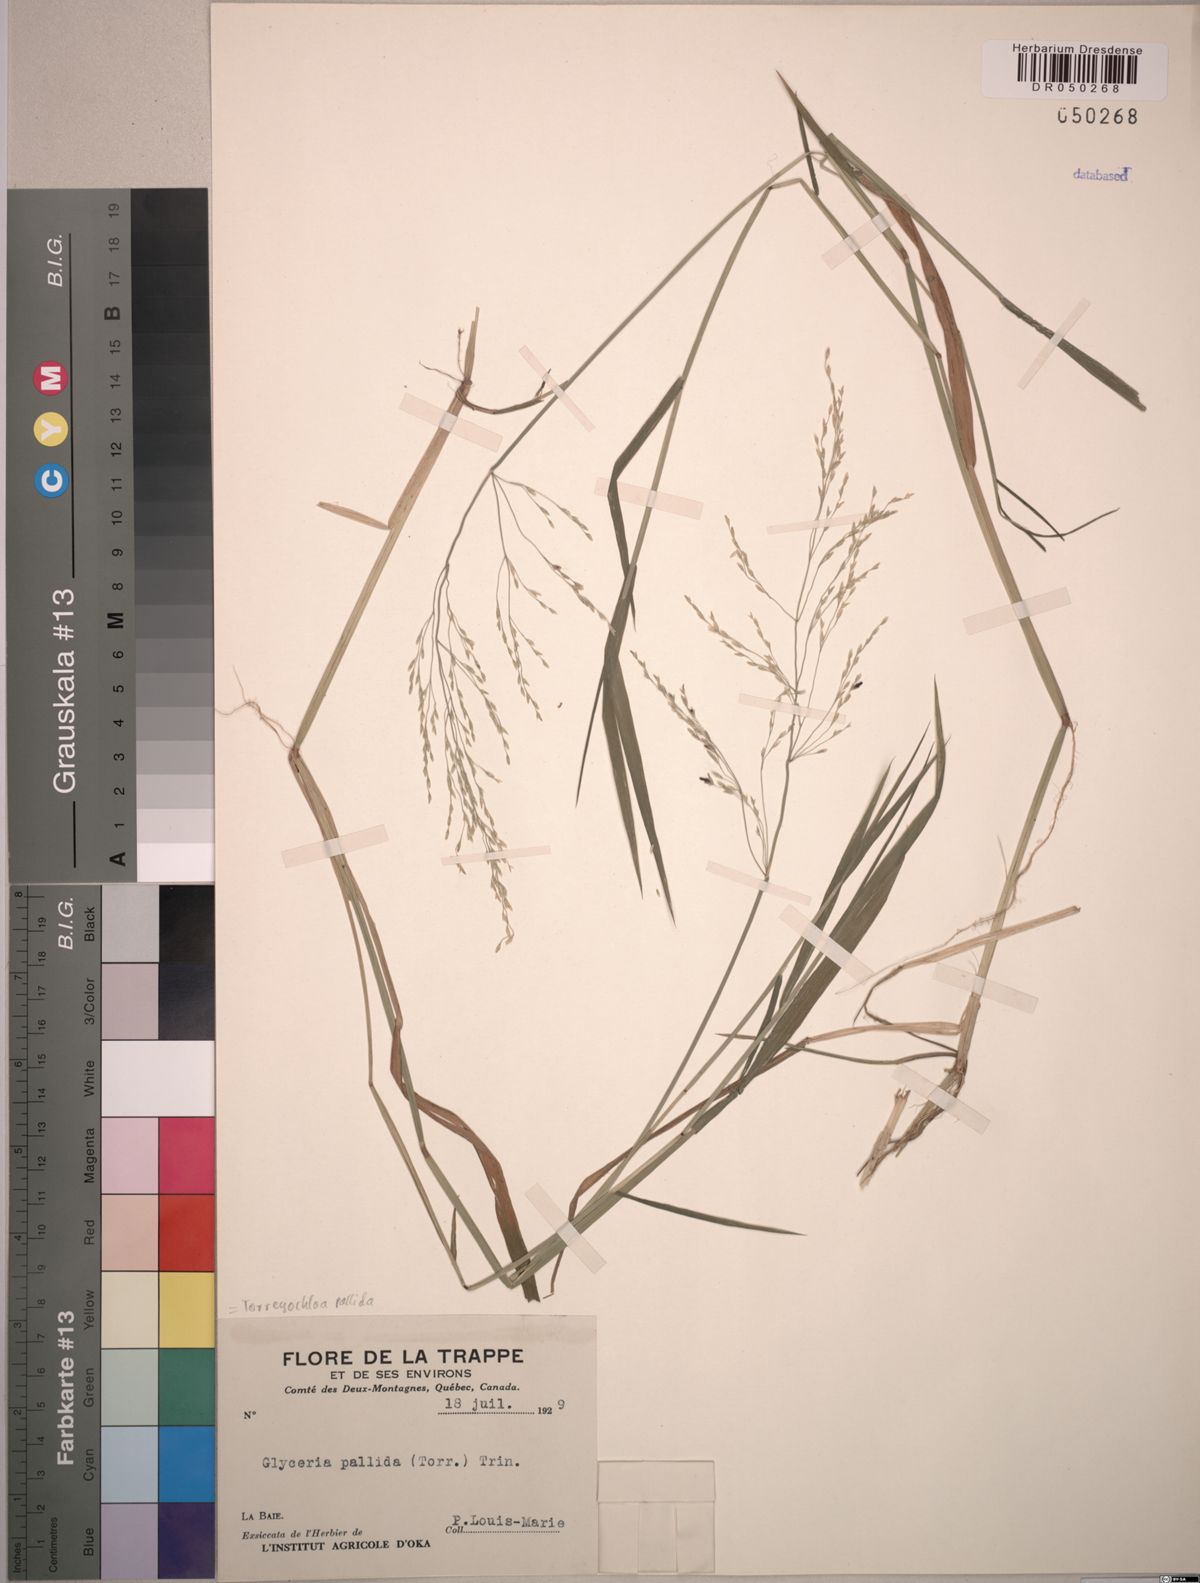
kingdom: Plantae
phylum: Tracheophyta
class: Liliopsida
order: Poales
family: Poaceae
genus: Torreyochloa
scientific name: Torreyochloa pallida
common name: Pale false mannagrass
